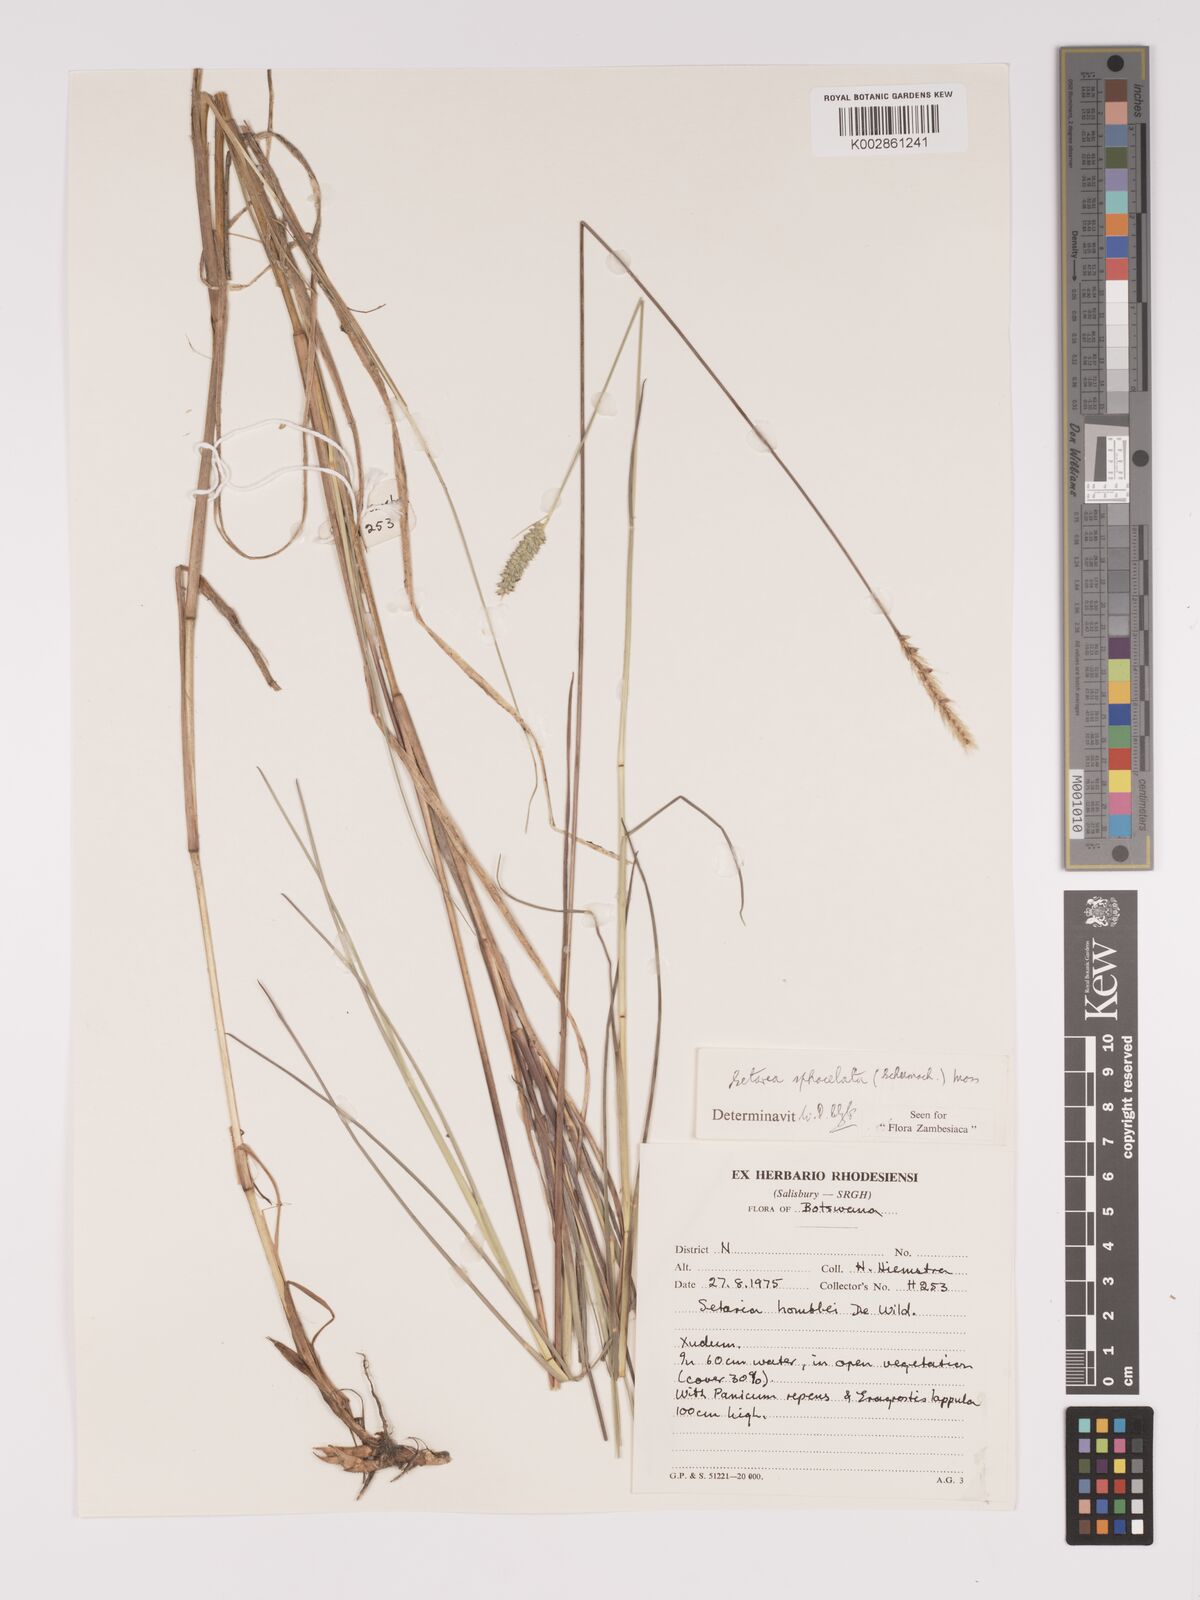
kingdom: Plantae
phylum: Tracheophyta
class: Liliopsida
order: Poales
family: Poaceae
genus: Setaria
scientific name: Setaria sphacelata
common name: African bristlegrass
